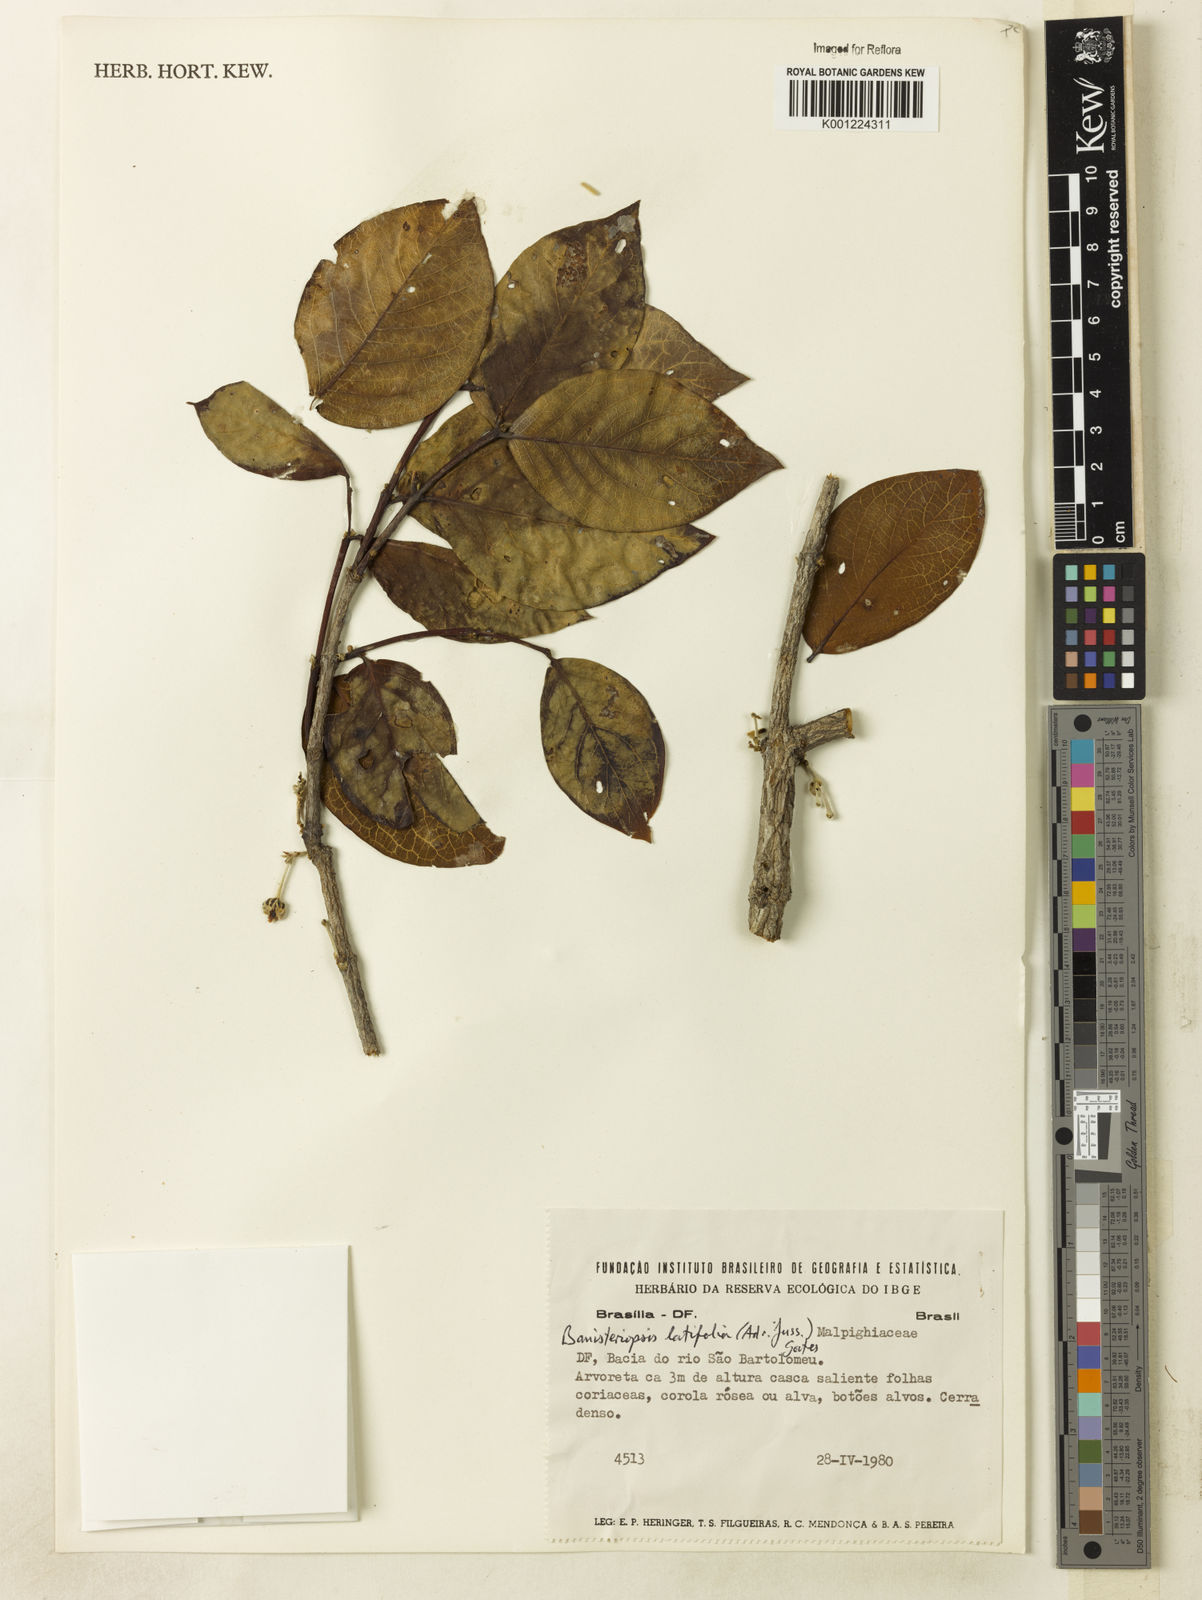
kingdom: Plantae
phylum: Tracheophyta
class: Magnoliopsida
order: Malpighiales
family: Malpighiaceae
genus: Banisteriopsis
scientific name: Banisteriopsis latifolia
